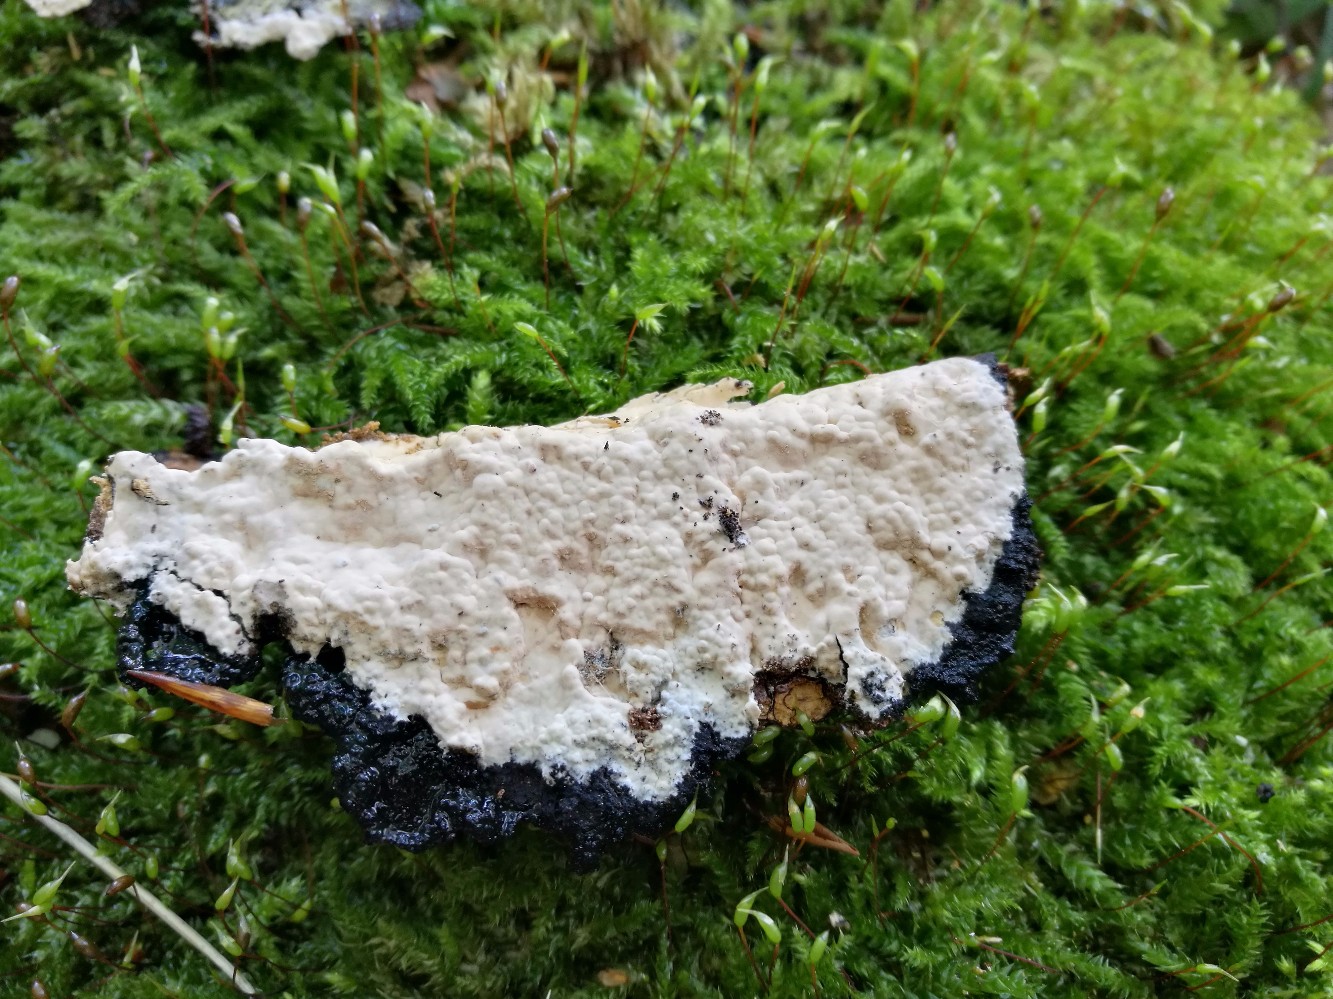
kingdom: Fungi
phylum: Basidiomycota
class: Agaricomycetes
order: Russulales
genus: Gloeohypochnicium
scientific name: Gloeohypochnicium analogum
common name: frugt-kalkskind
